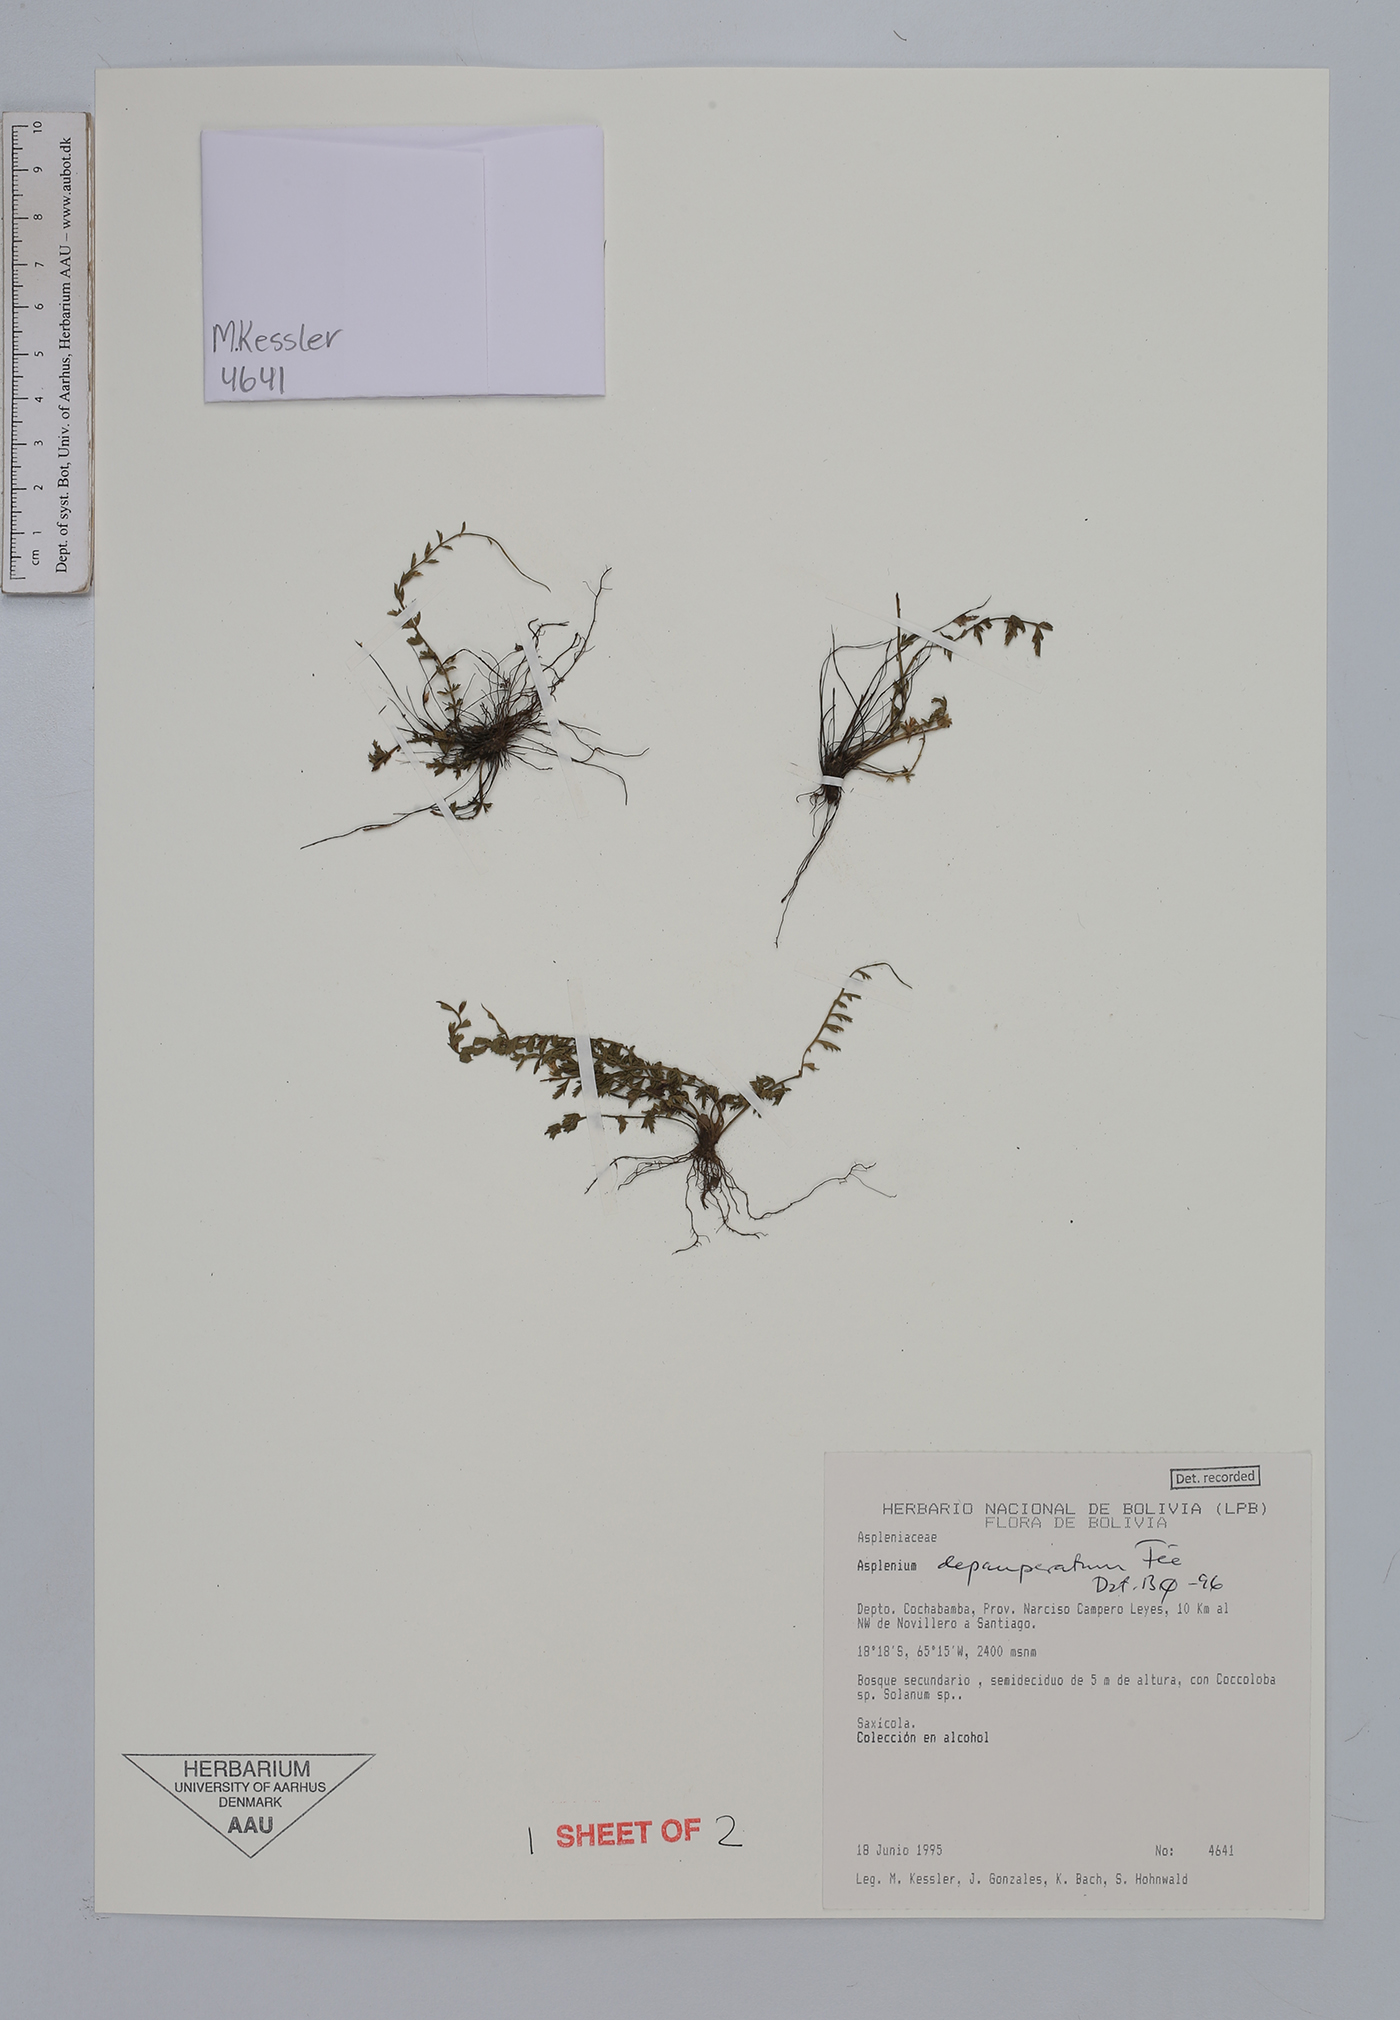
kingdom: Plantae
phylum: Tracheophyta
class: Polypodiopsida
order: Polypodiales
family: Aspleniaceae
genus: Asplenium
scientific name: Asplenium depauperatum
